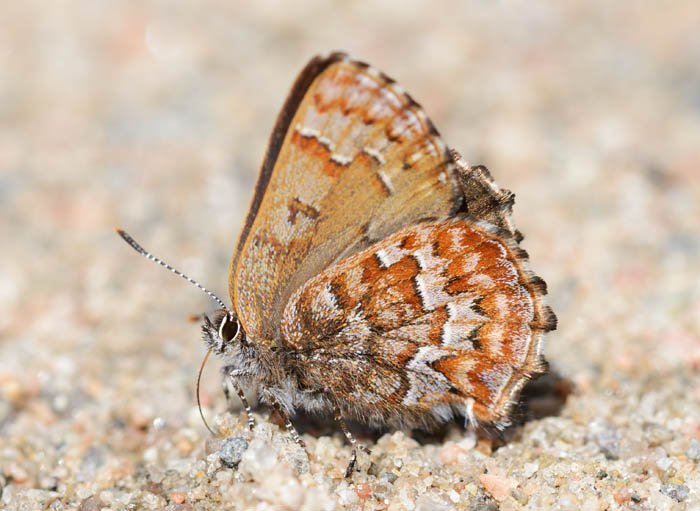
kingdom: Animalia
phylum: Arthropoda
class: Insecta
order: Lepidoptera
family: Lycaenidae
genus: Incisalia
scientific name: Incisalia niphon
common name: Eastern Pine Elfin
